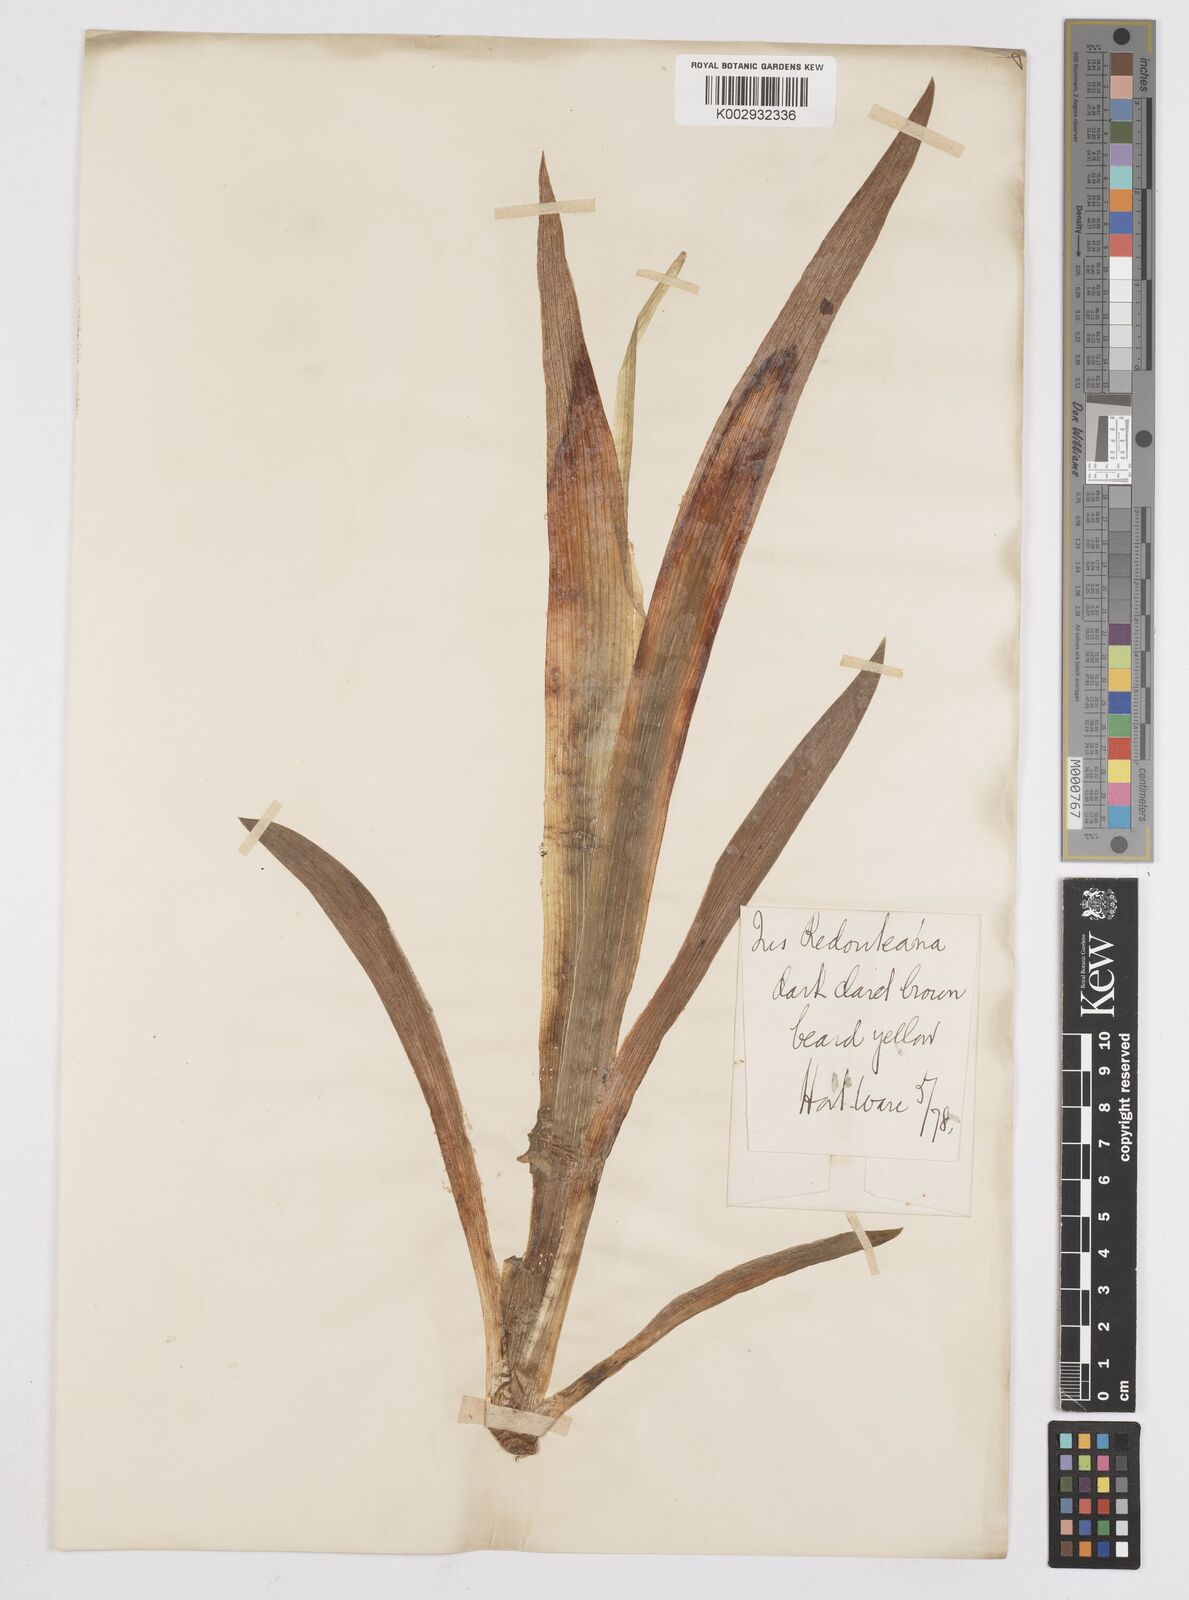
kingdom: Plantae
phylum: Tracheophyta
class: Liliopsida
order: Asparagales
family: Iridaceae
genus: Iris
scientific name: Iris
